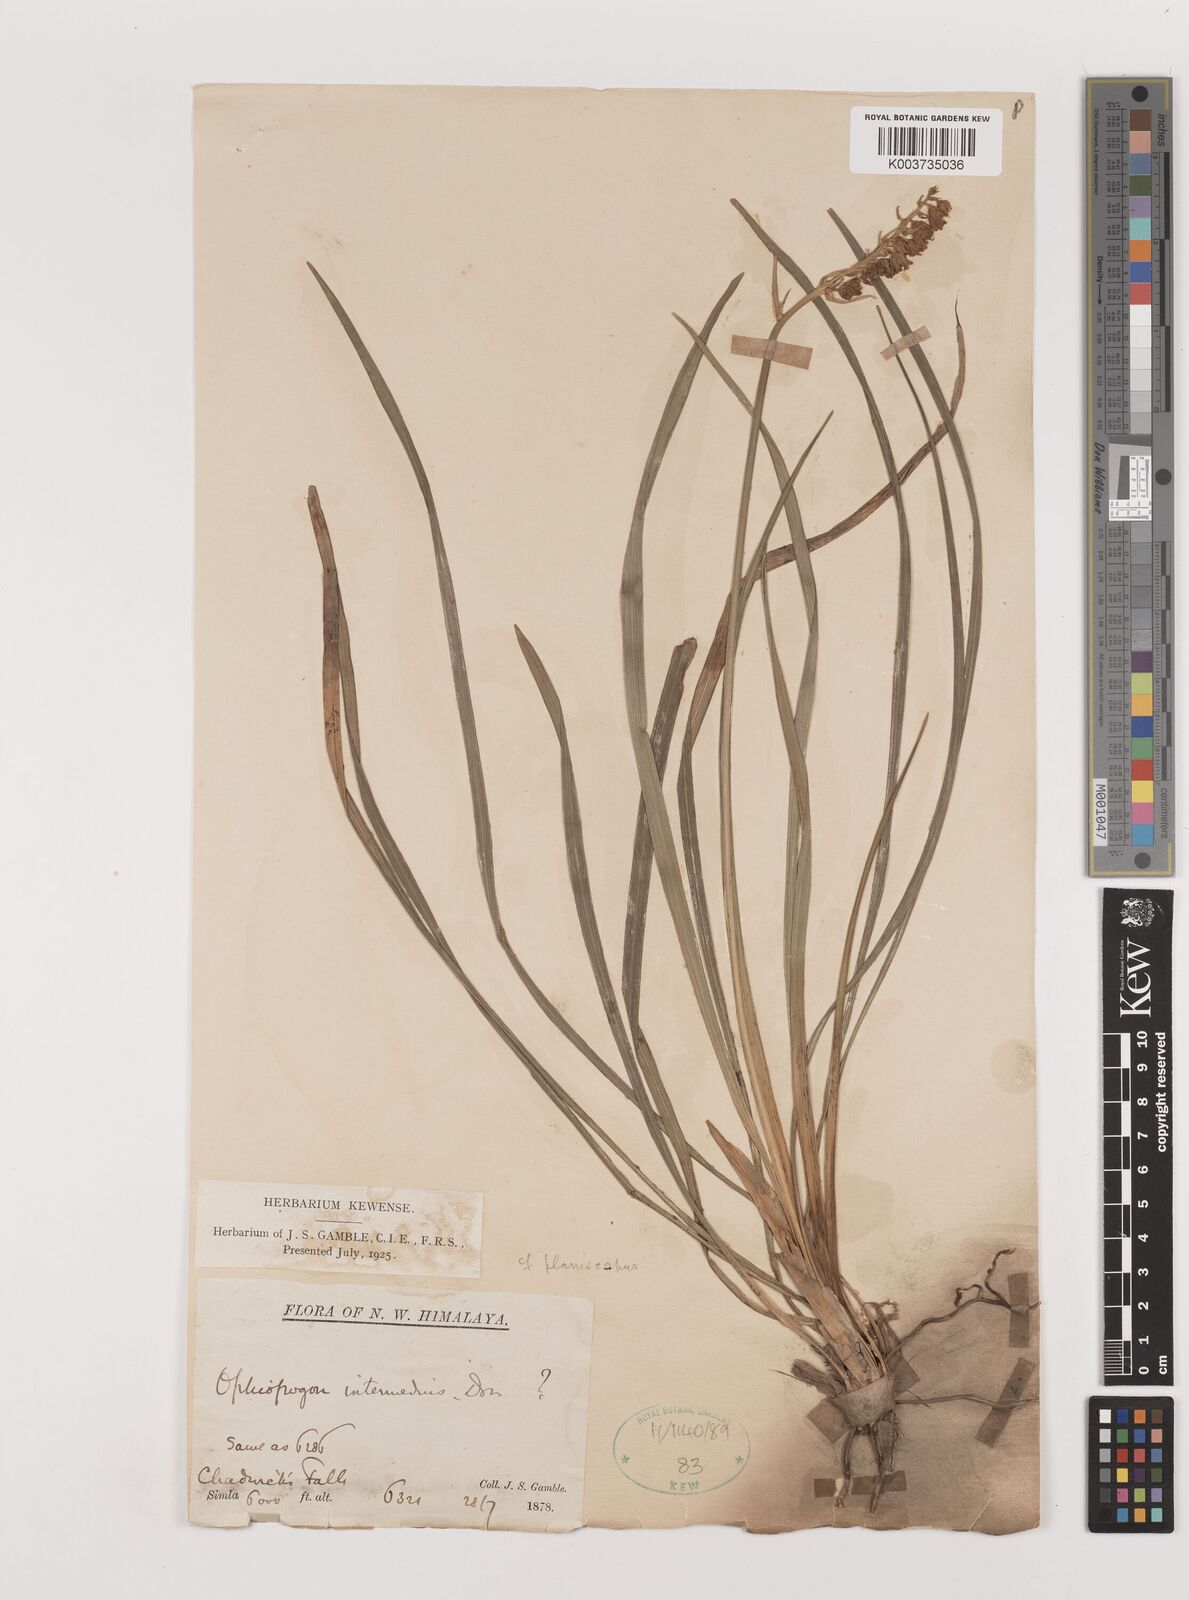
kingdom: Plantae
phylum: Tracheophyta
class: Liliopsida
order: Asparagales
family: Asparagaceae
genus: Ophiopogon
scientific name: Ophiopogon intermedius
